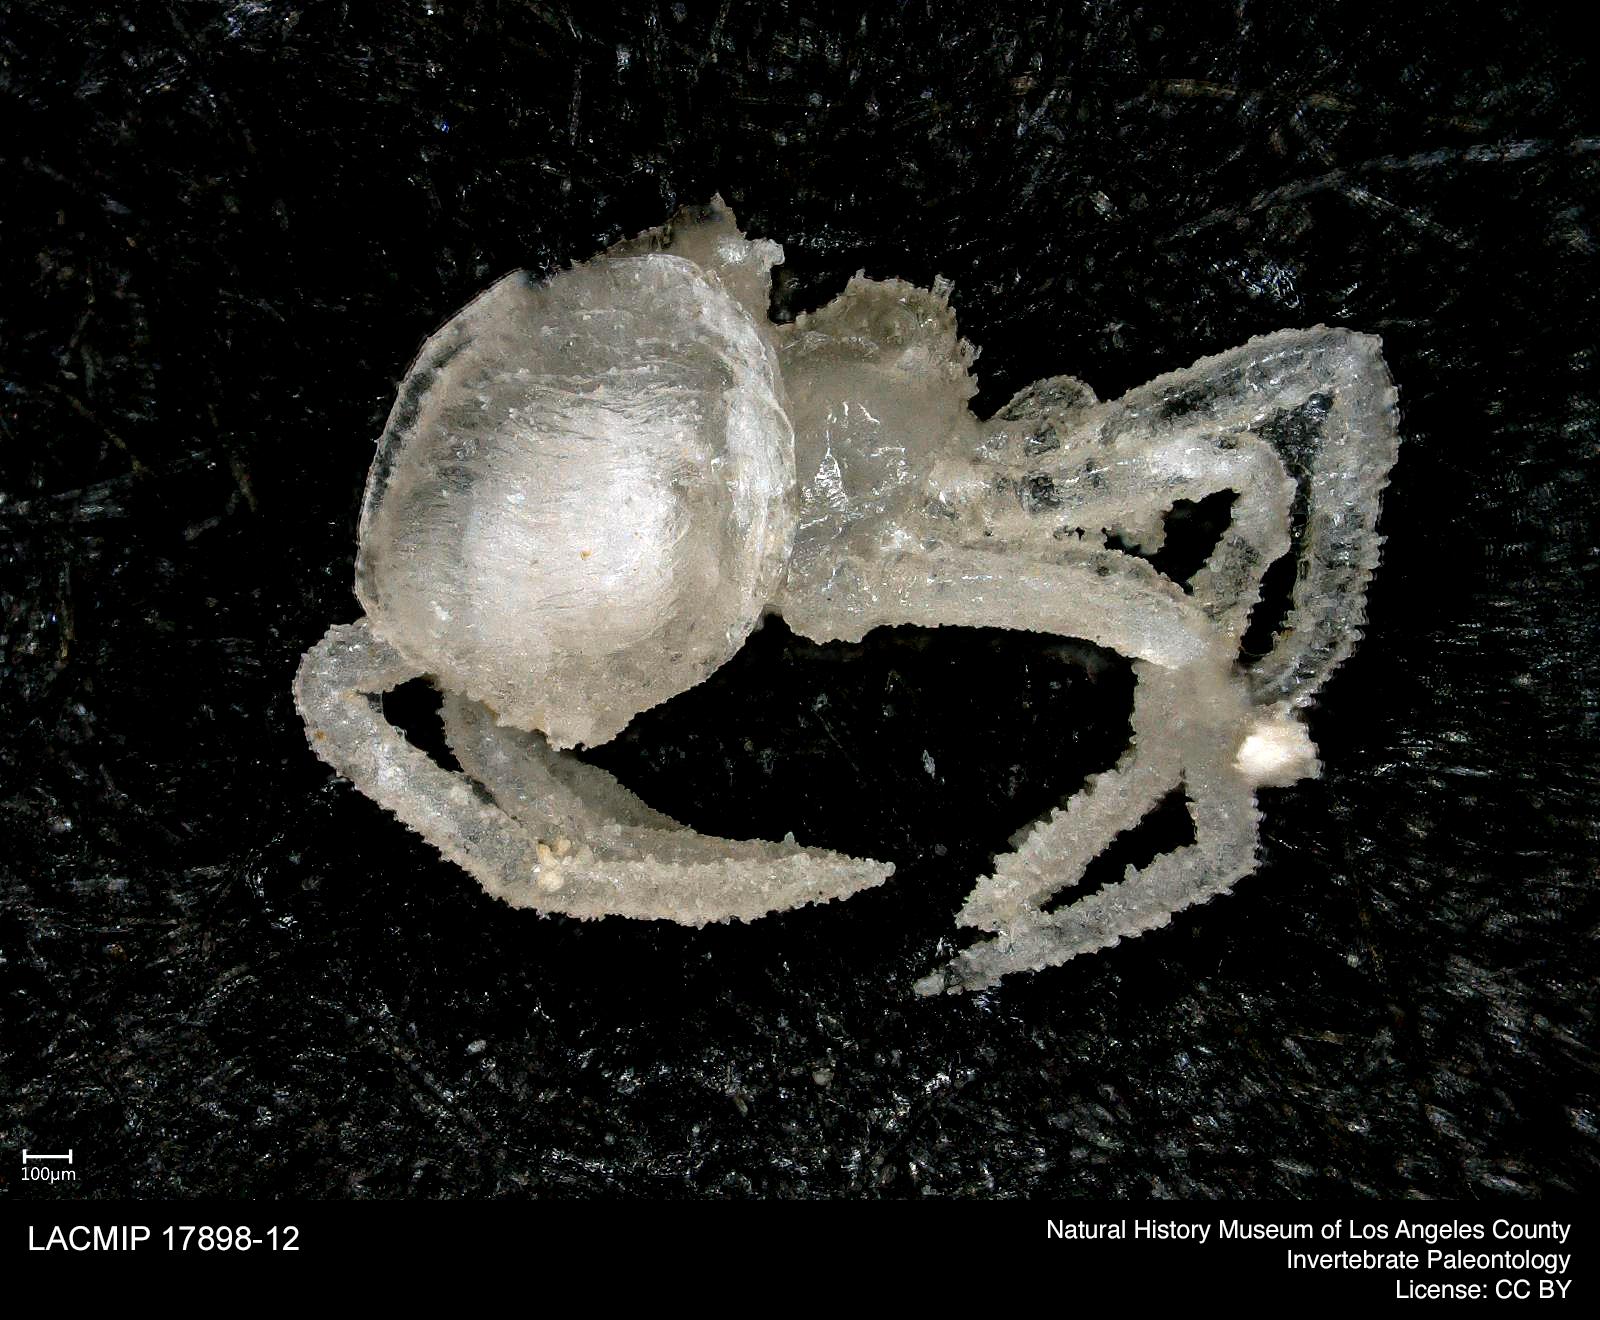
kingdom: Animalia
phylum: Arthropoda
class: Arachnida
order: Araneae
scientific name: Araneae
